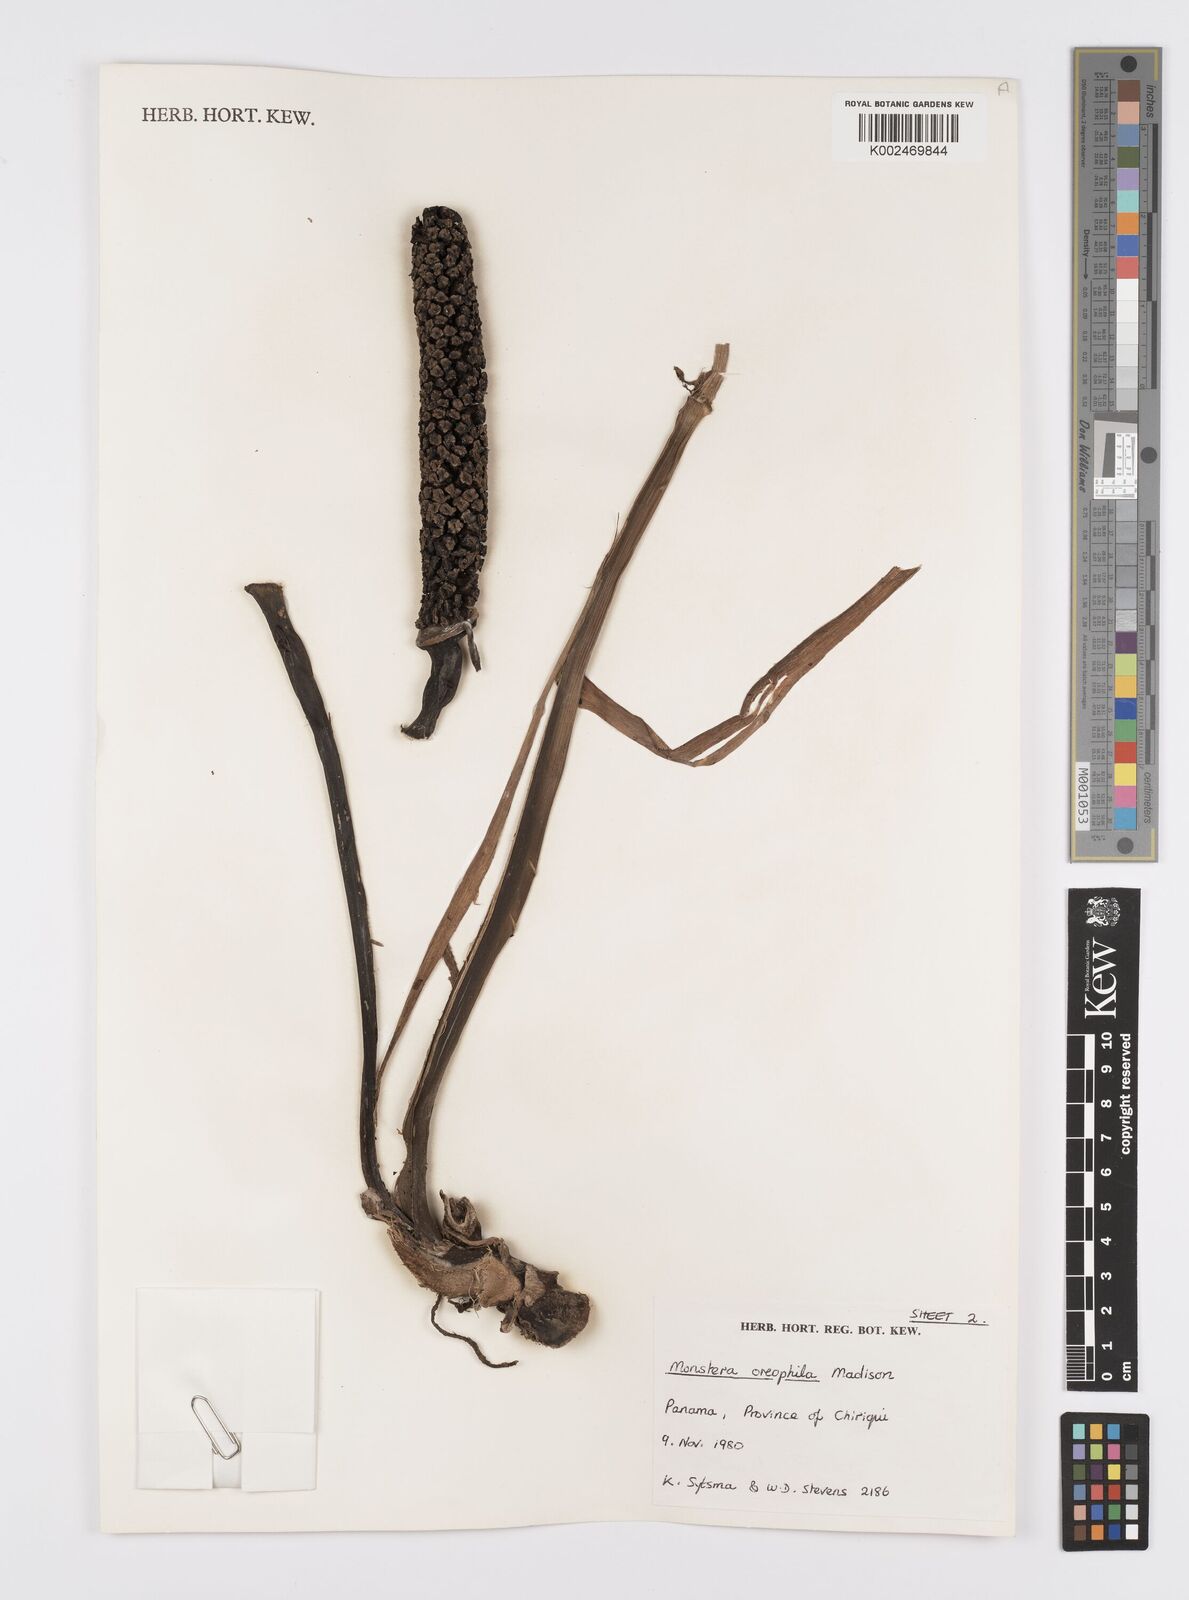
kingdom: Plantae
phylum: Tracheophyta
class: Liliopsida
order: Alismatales
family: Araceae
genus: Monstera
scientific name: Monstera oreophila
